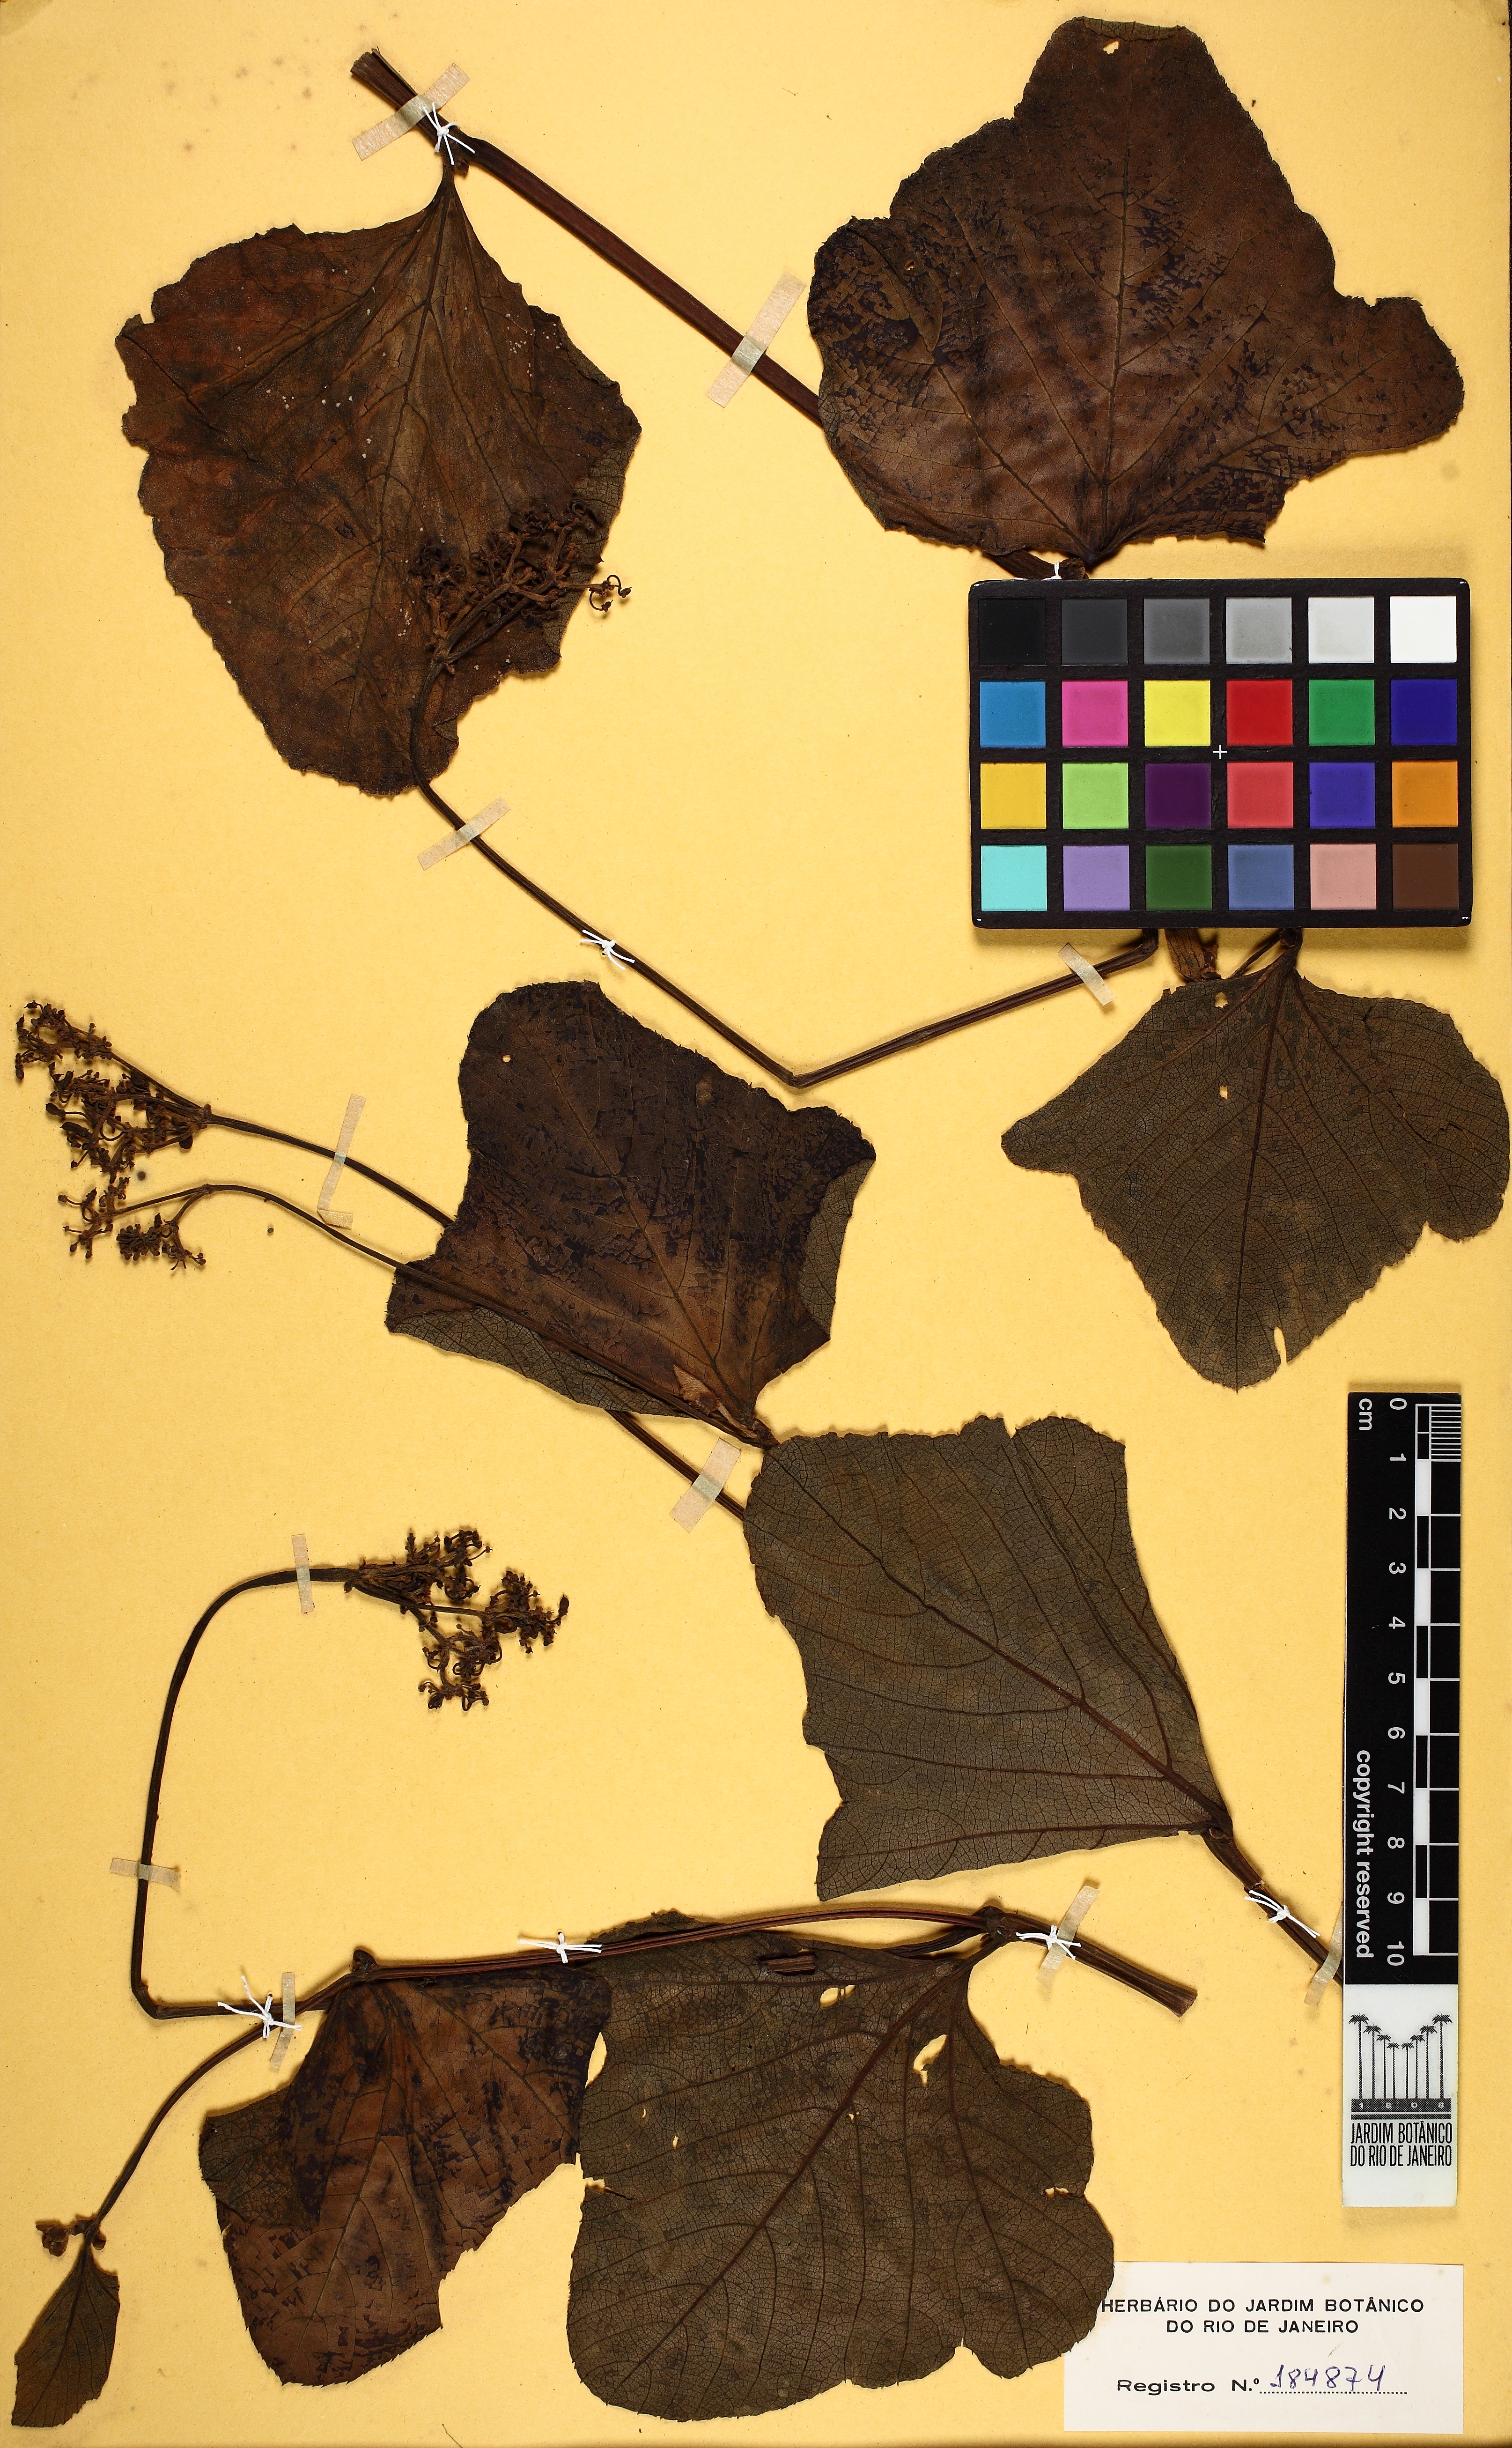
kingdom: Plantae
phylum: Tracheophyta
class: Magnoliopsida
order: Vitales
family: Vitaceae
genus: Cissus
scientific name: Cissus spinosa
